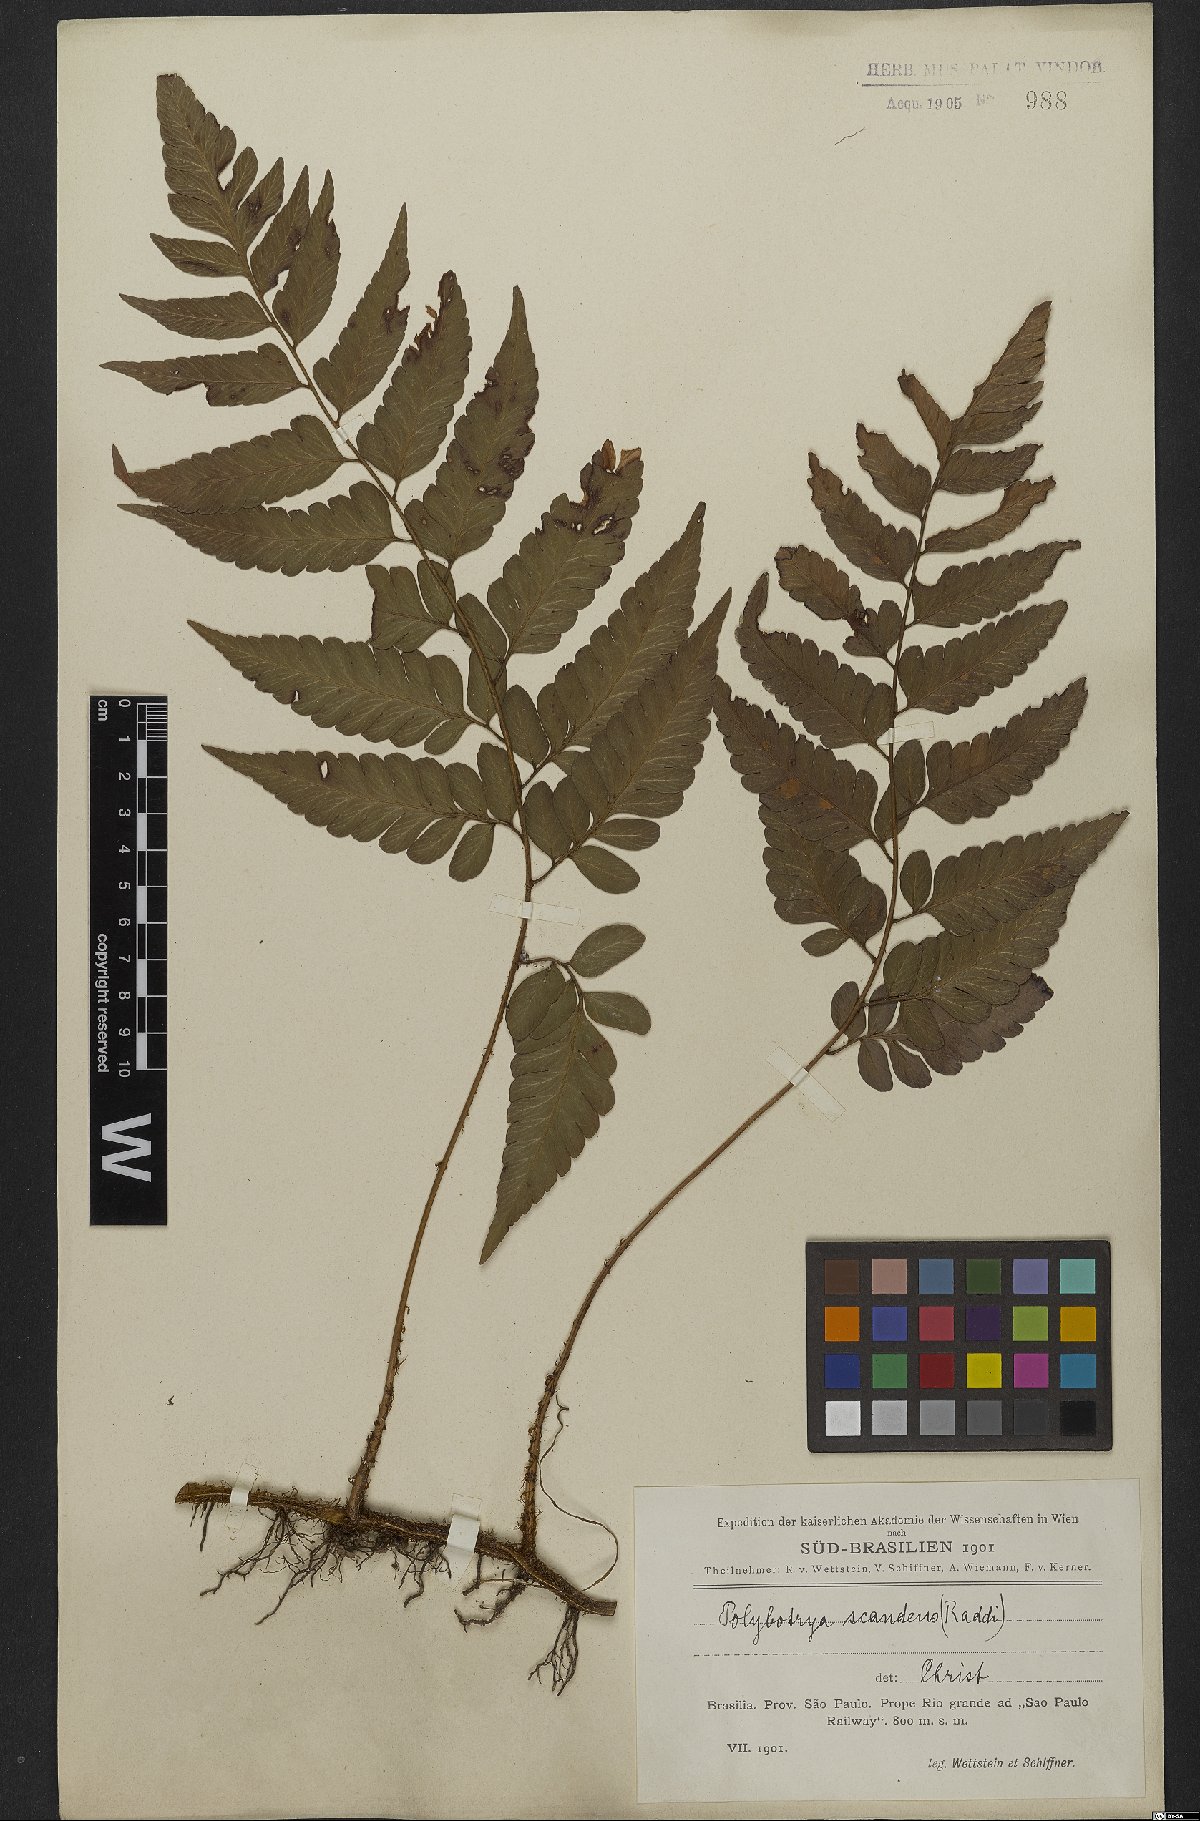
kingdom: Plantae
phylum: Tracheophyta
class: Polypodiopsida
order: Polypodiales
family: Dryopteridaceae
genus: Polybotrya
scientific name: Polybotrya semipinnata
